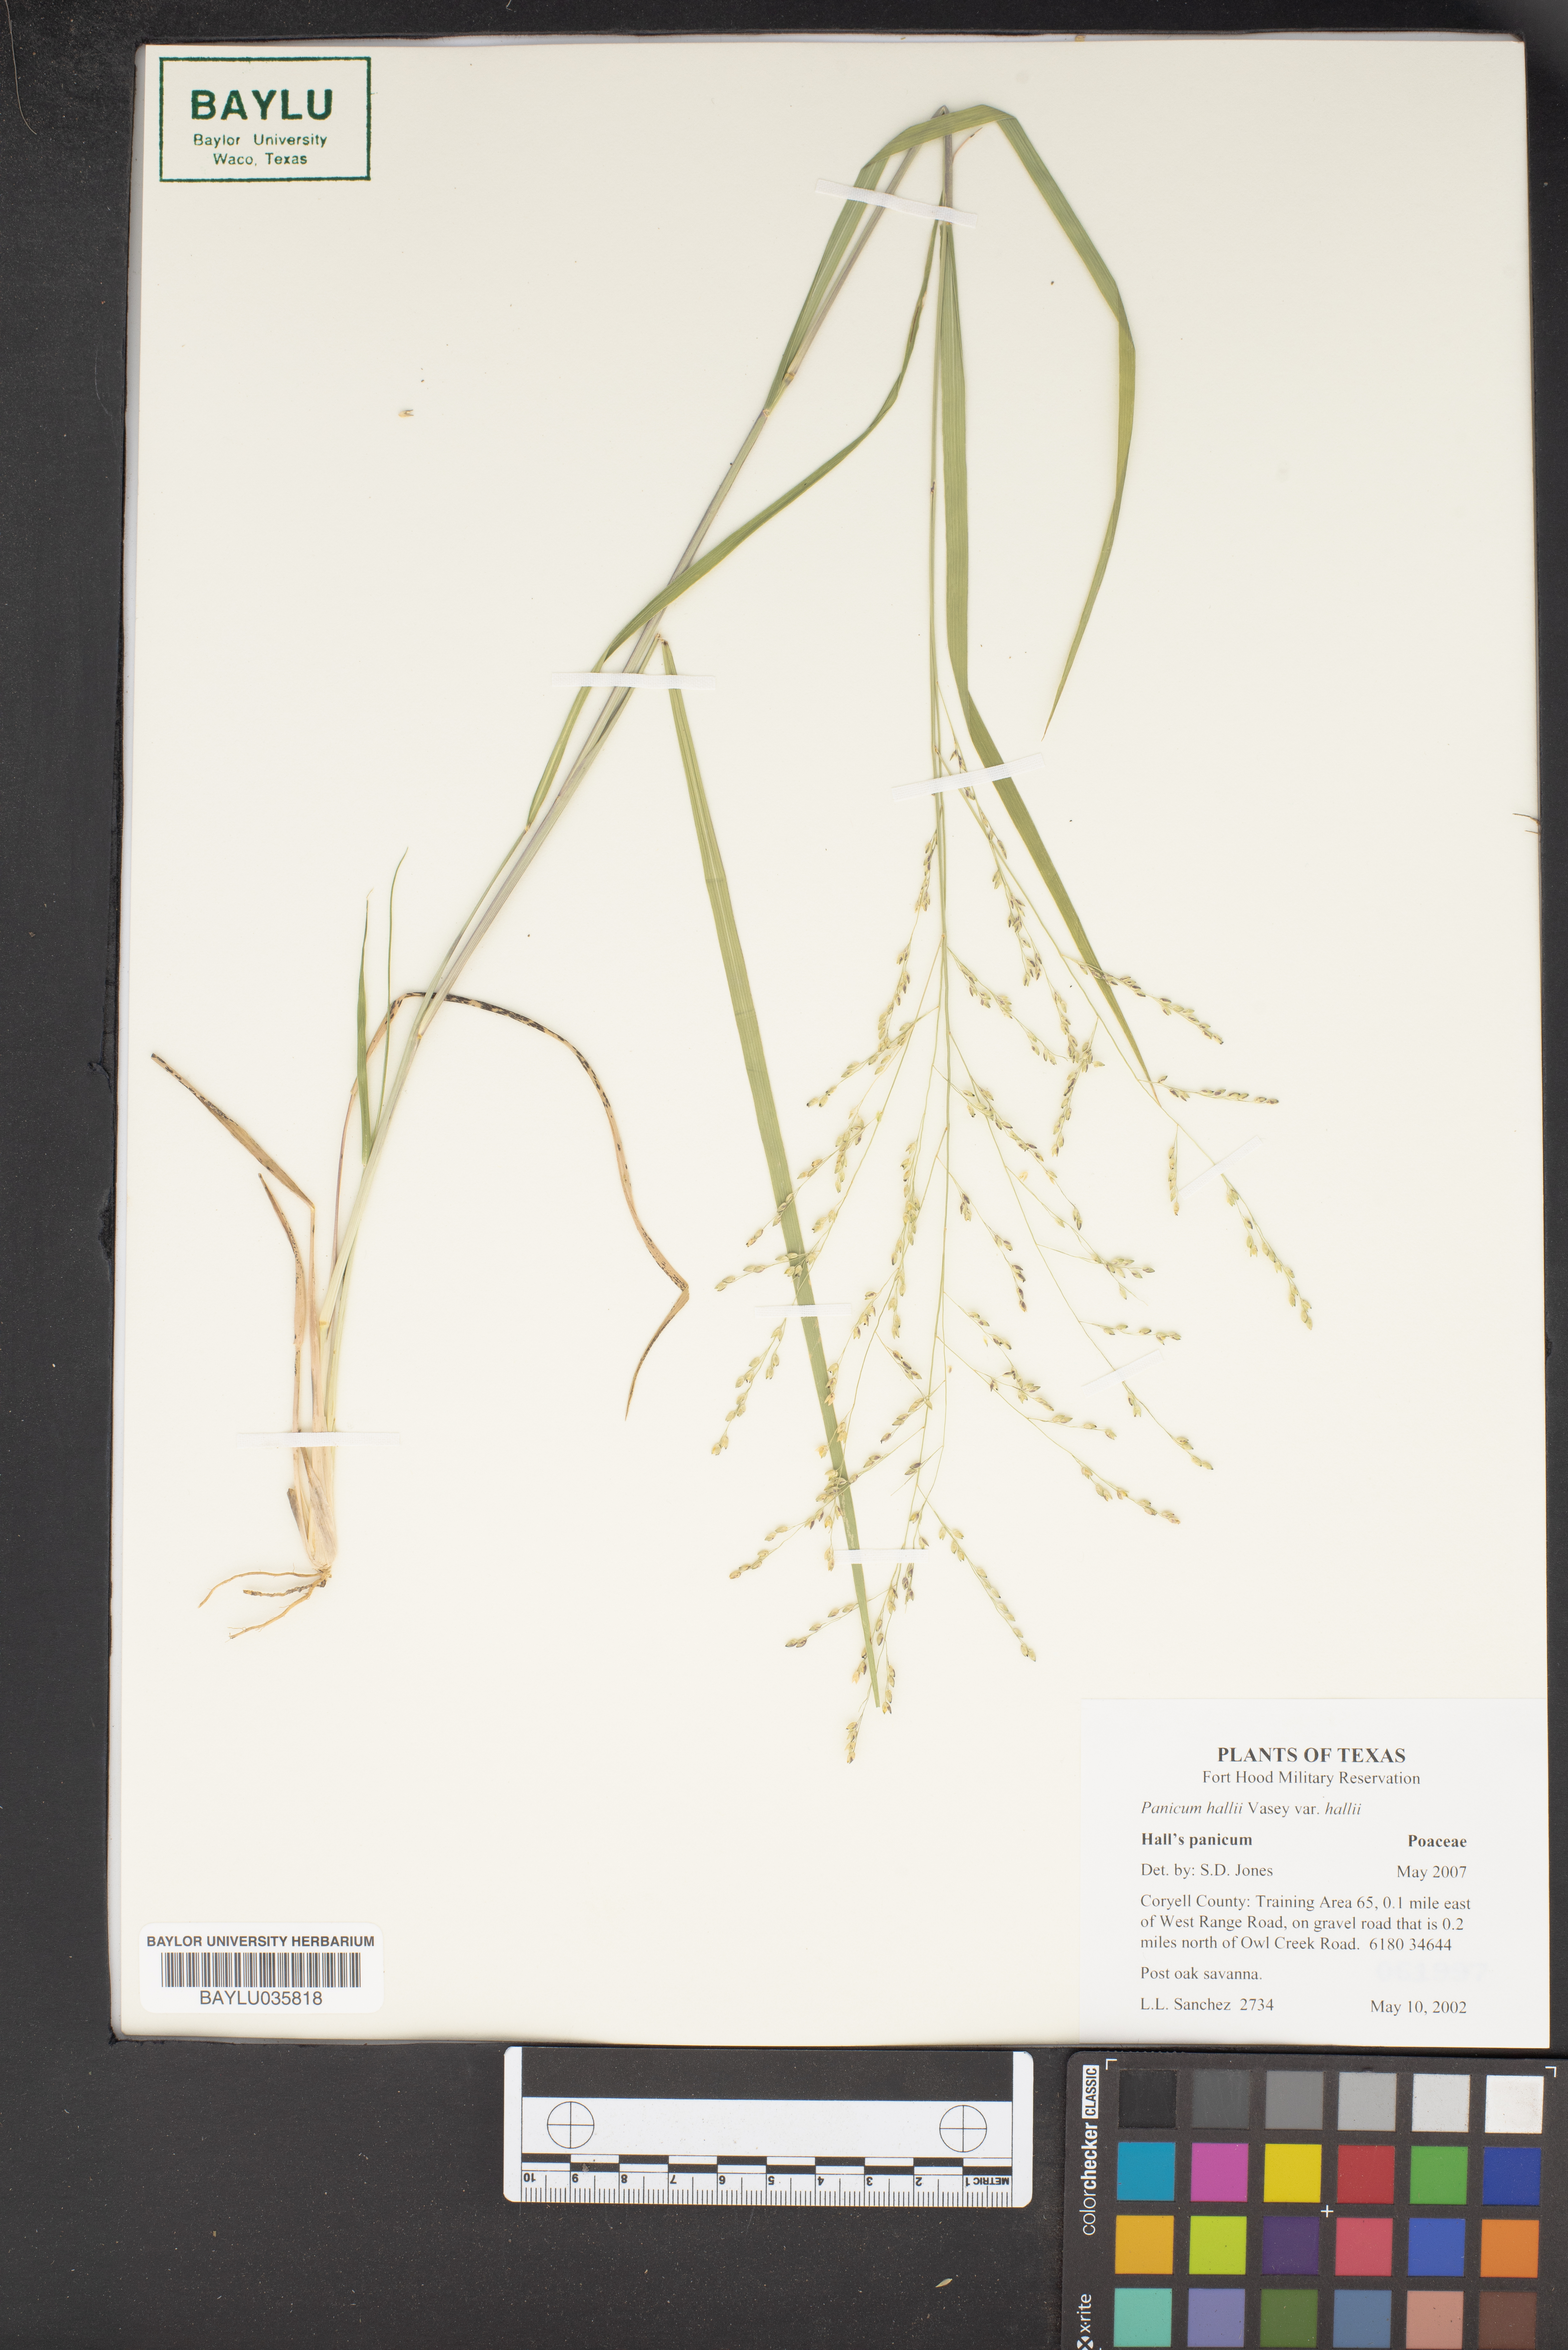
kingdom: Plantae
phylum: Tracheophyta
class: Liliopsida
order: Poales
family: Poaceae
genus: Panicum
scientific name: Panicum hallii
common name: Hall's witchgrass
